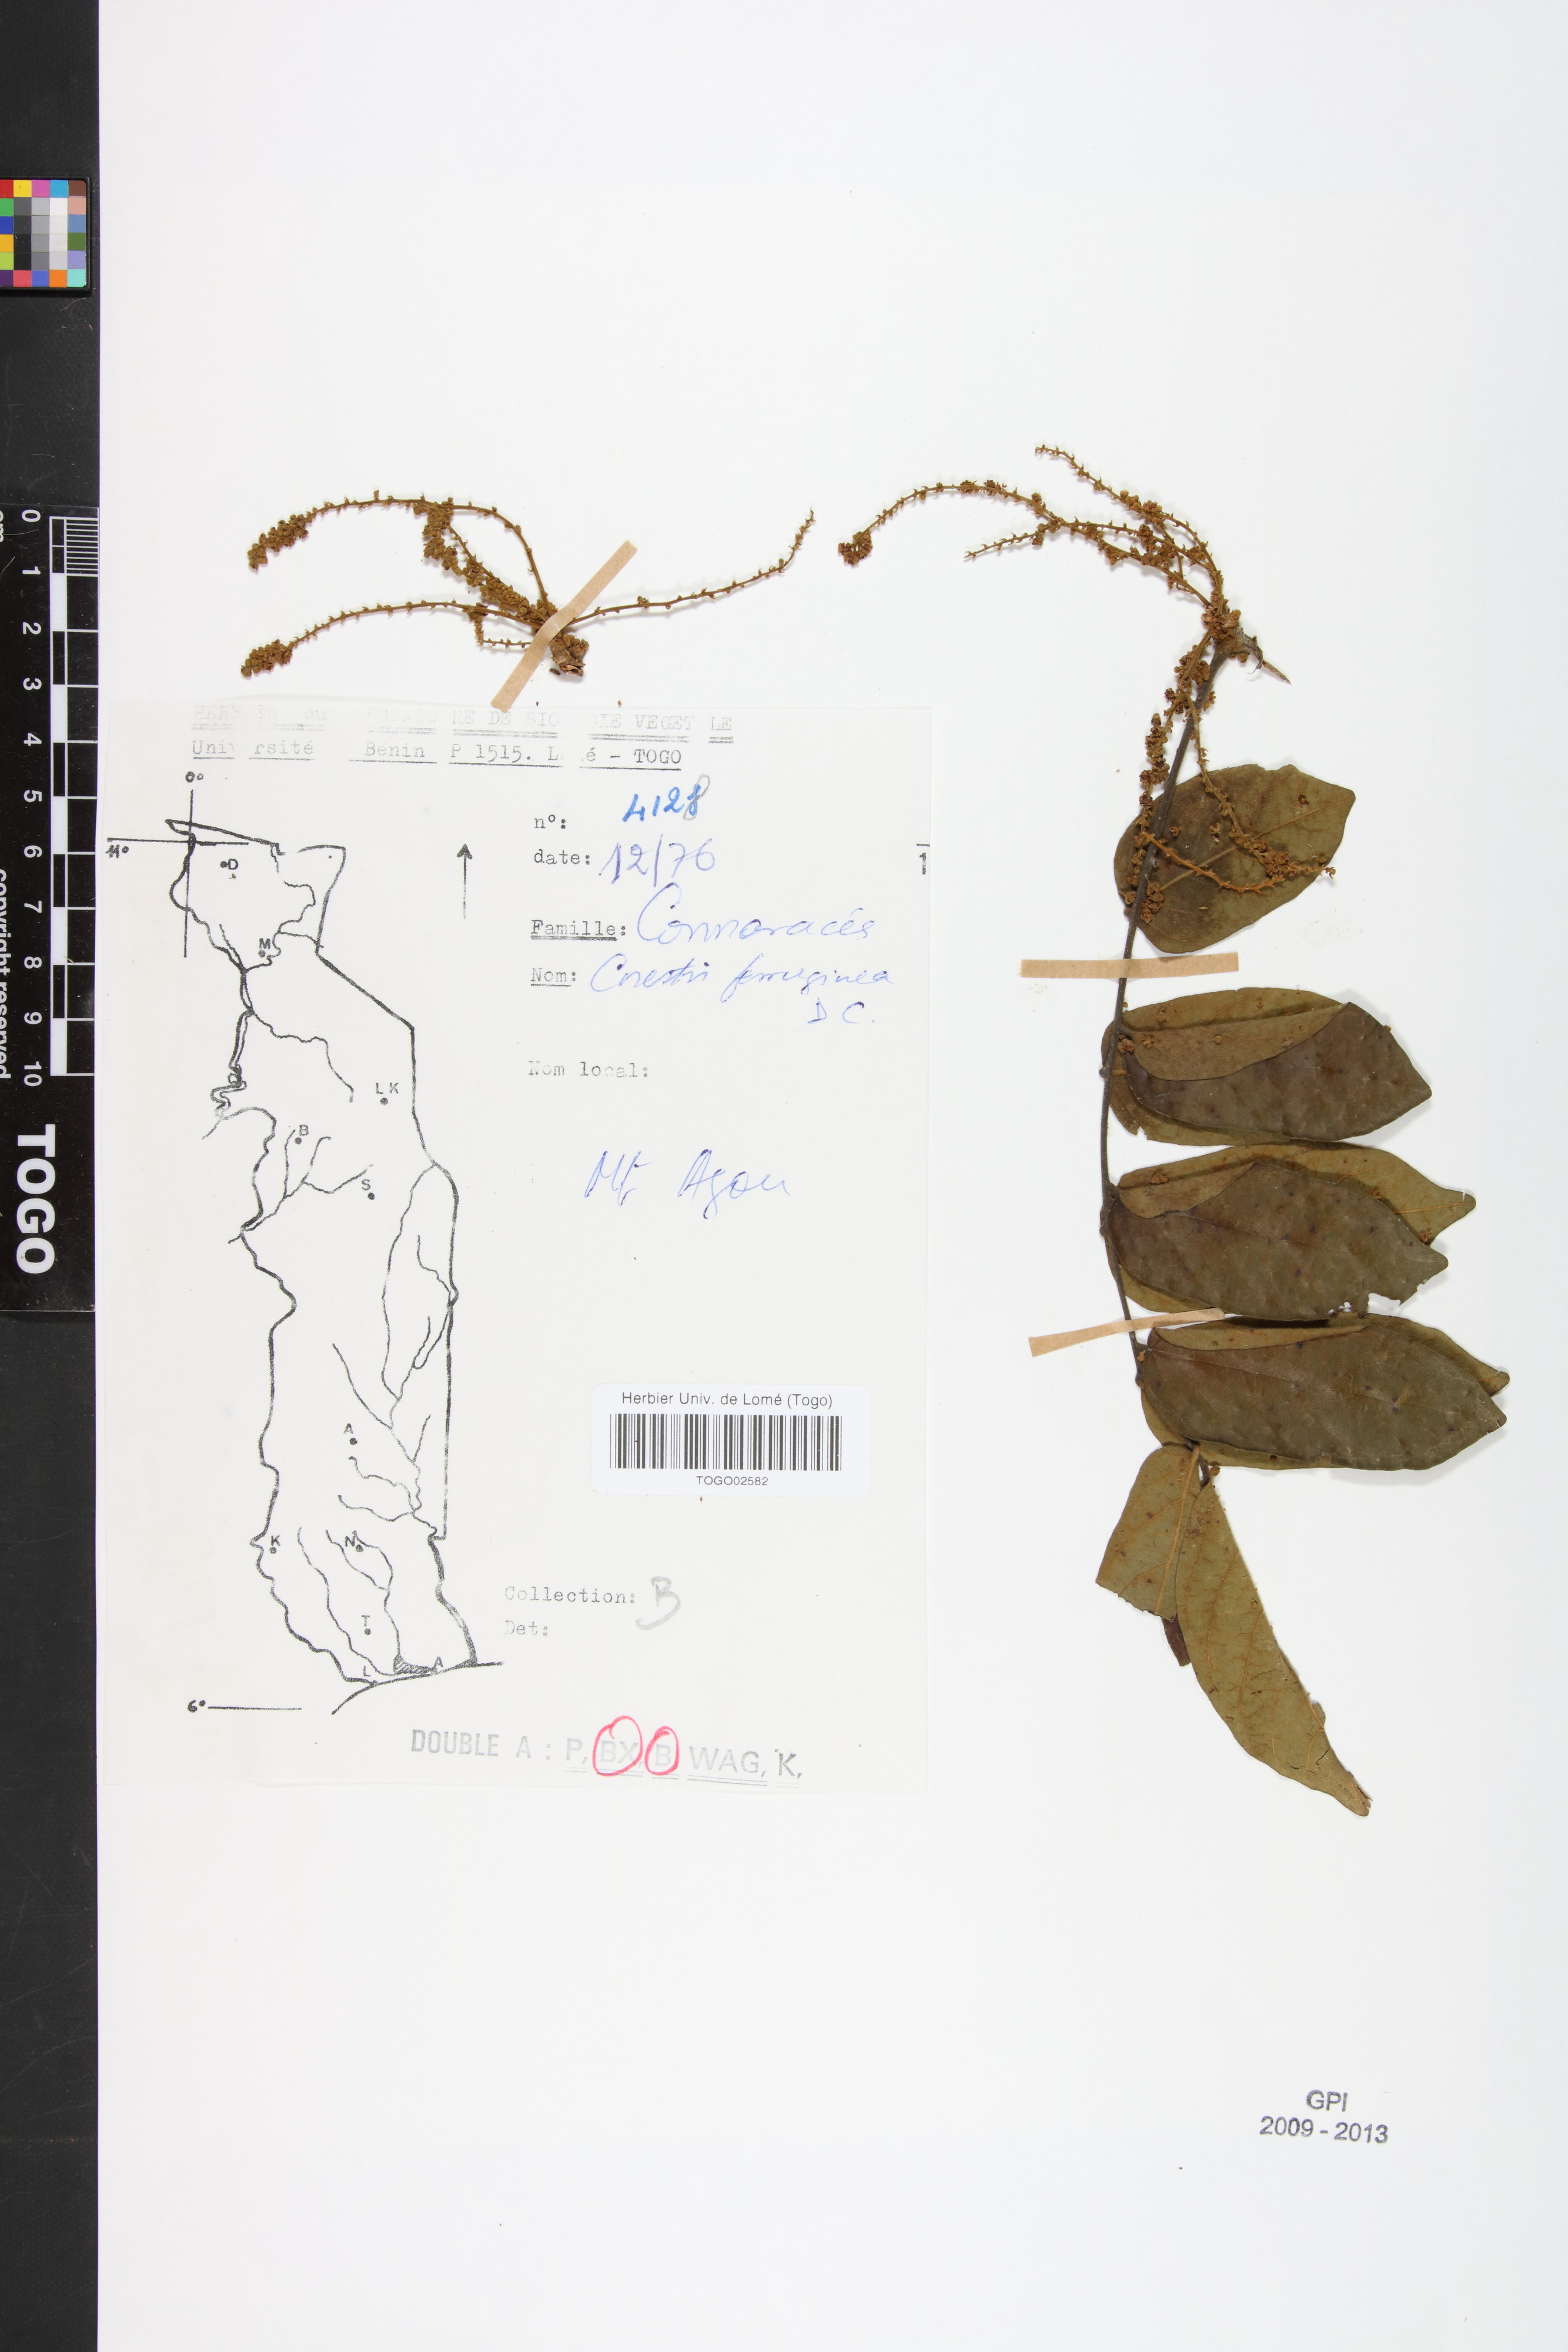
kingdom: Plantae
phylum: Tracheophyta
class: Magnoliopsida
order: Oxalidales
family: Connaraceae
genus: Cnestis
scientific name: Cnestis ferruginea
